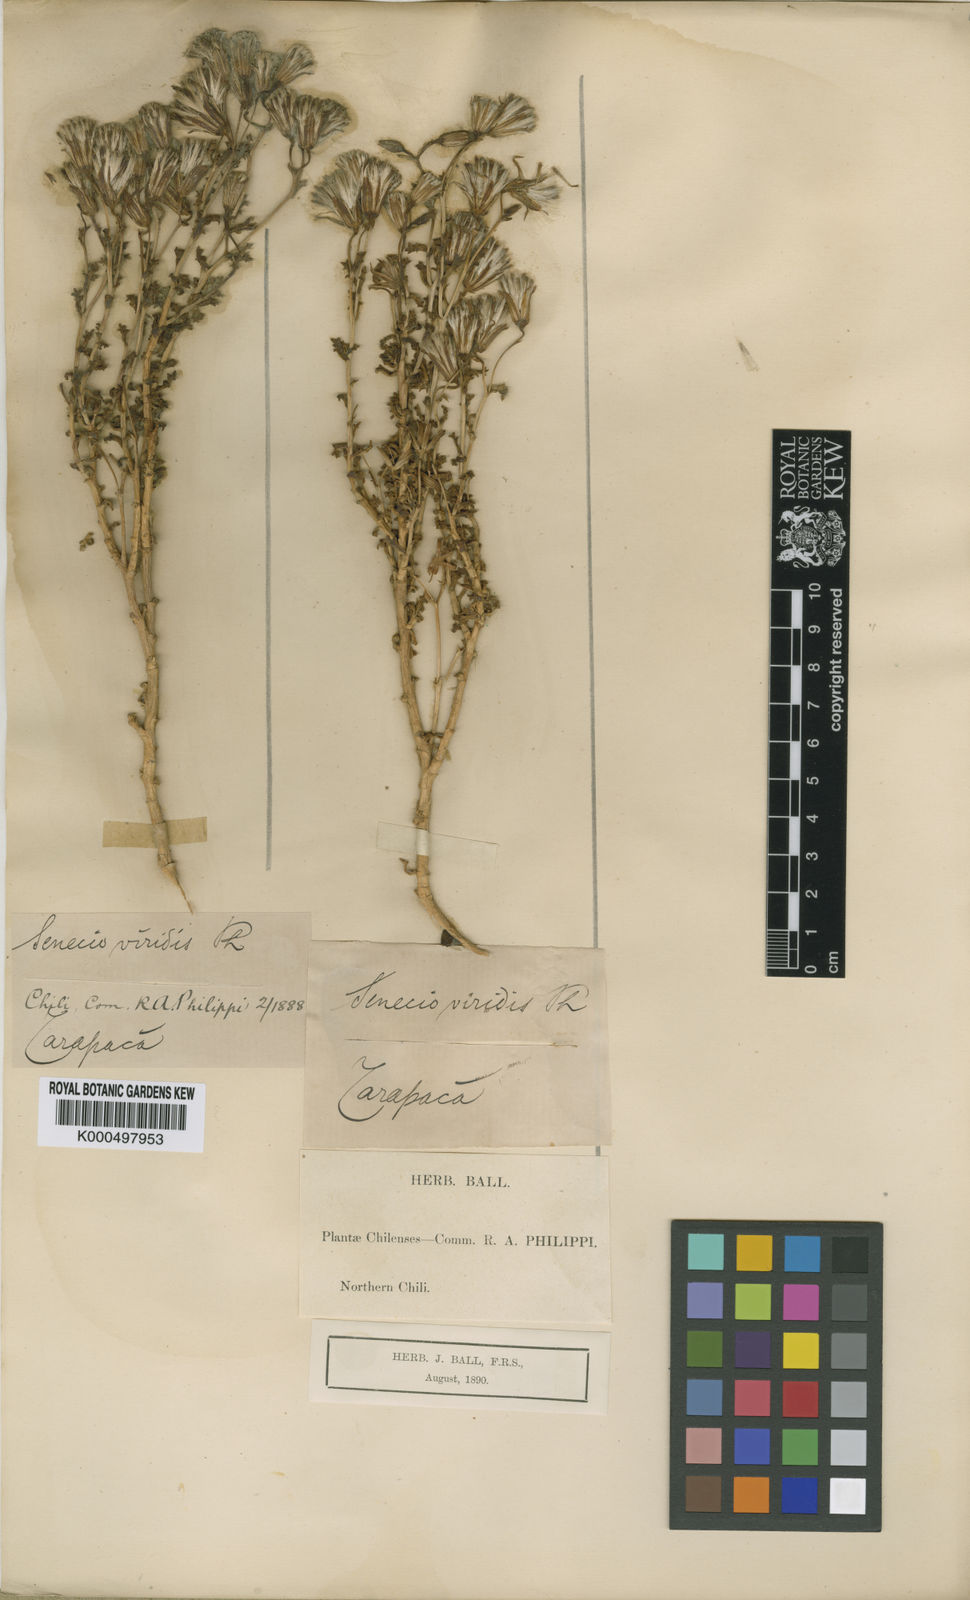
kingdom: Plantae
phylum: Tracheophyta
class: Magnoliopsida
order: Asterales
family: Asteraceae
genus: Senecio
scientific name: Senecio viridis
